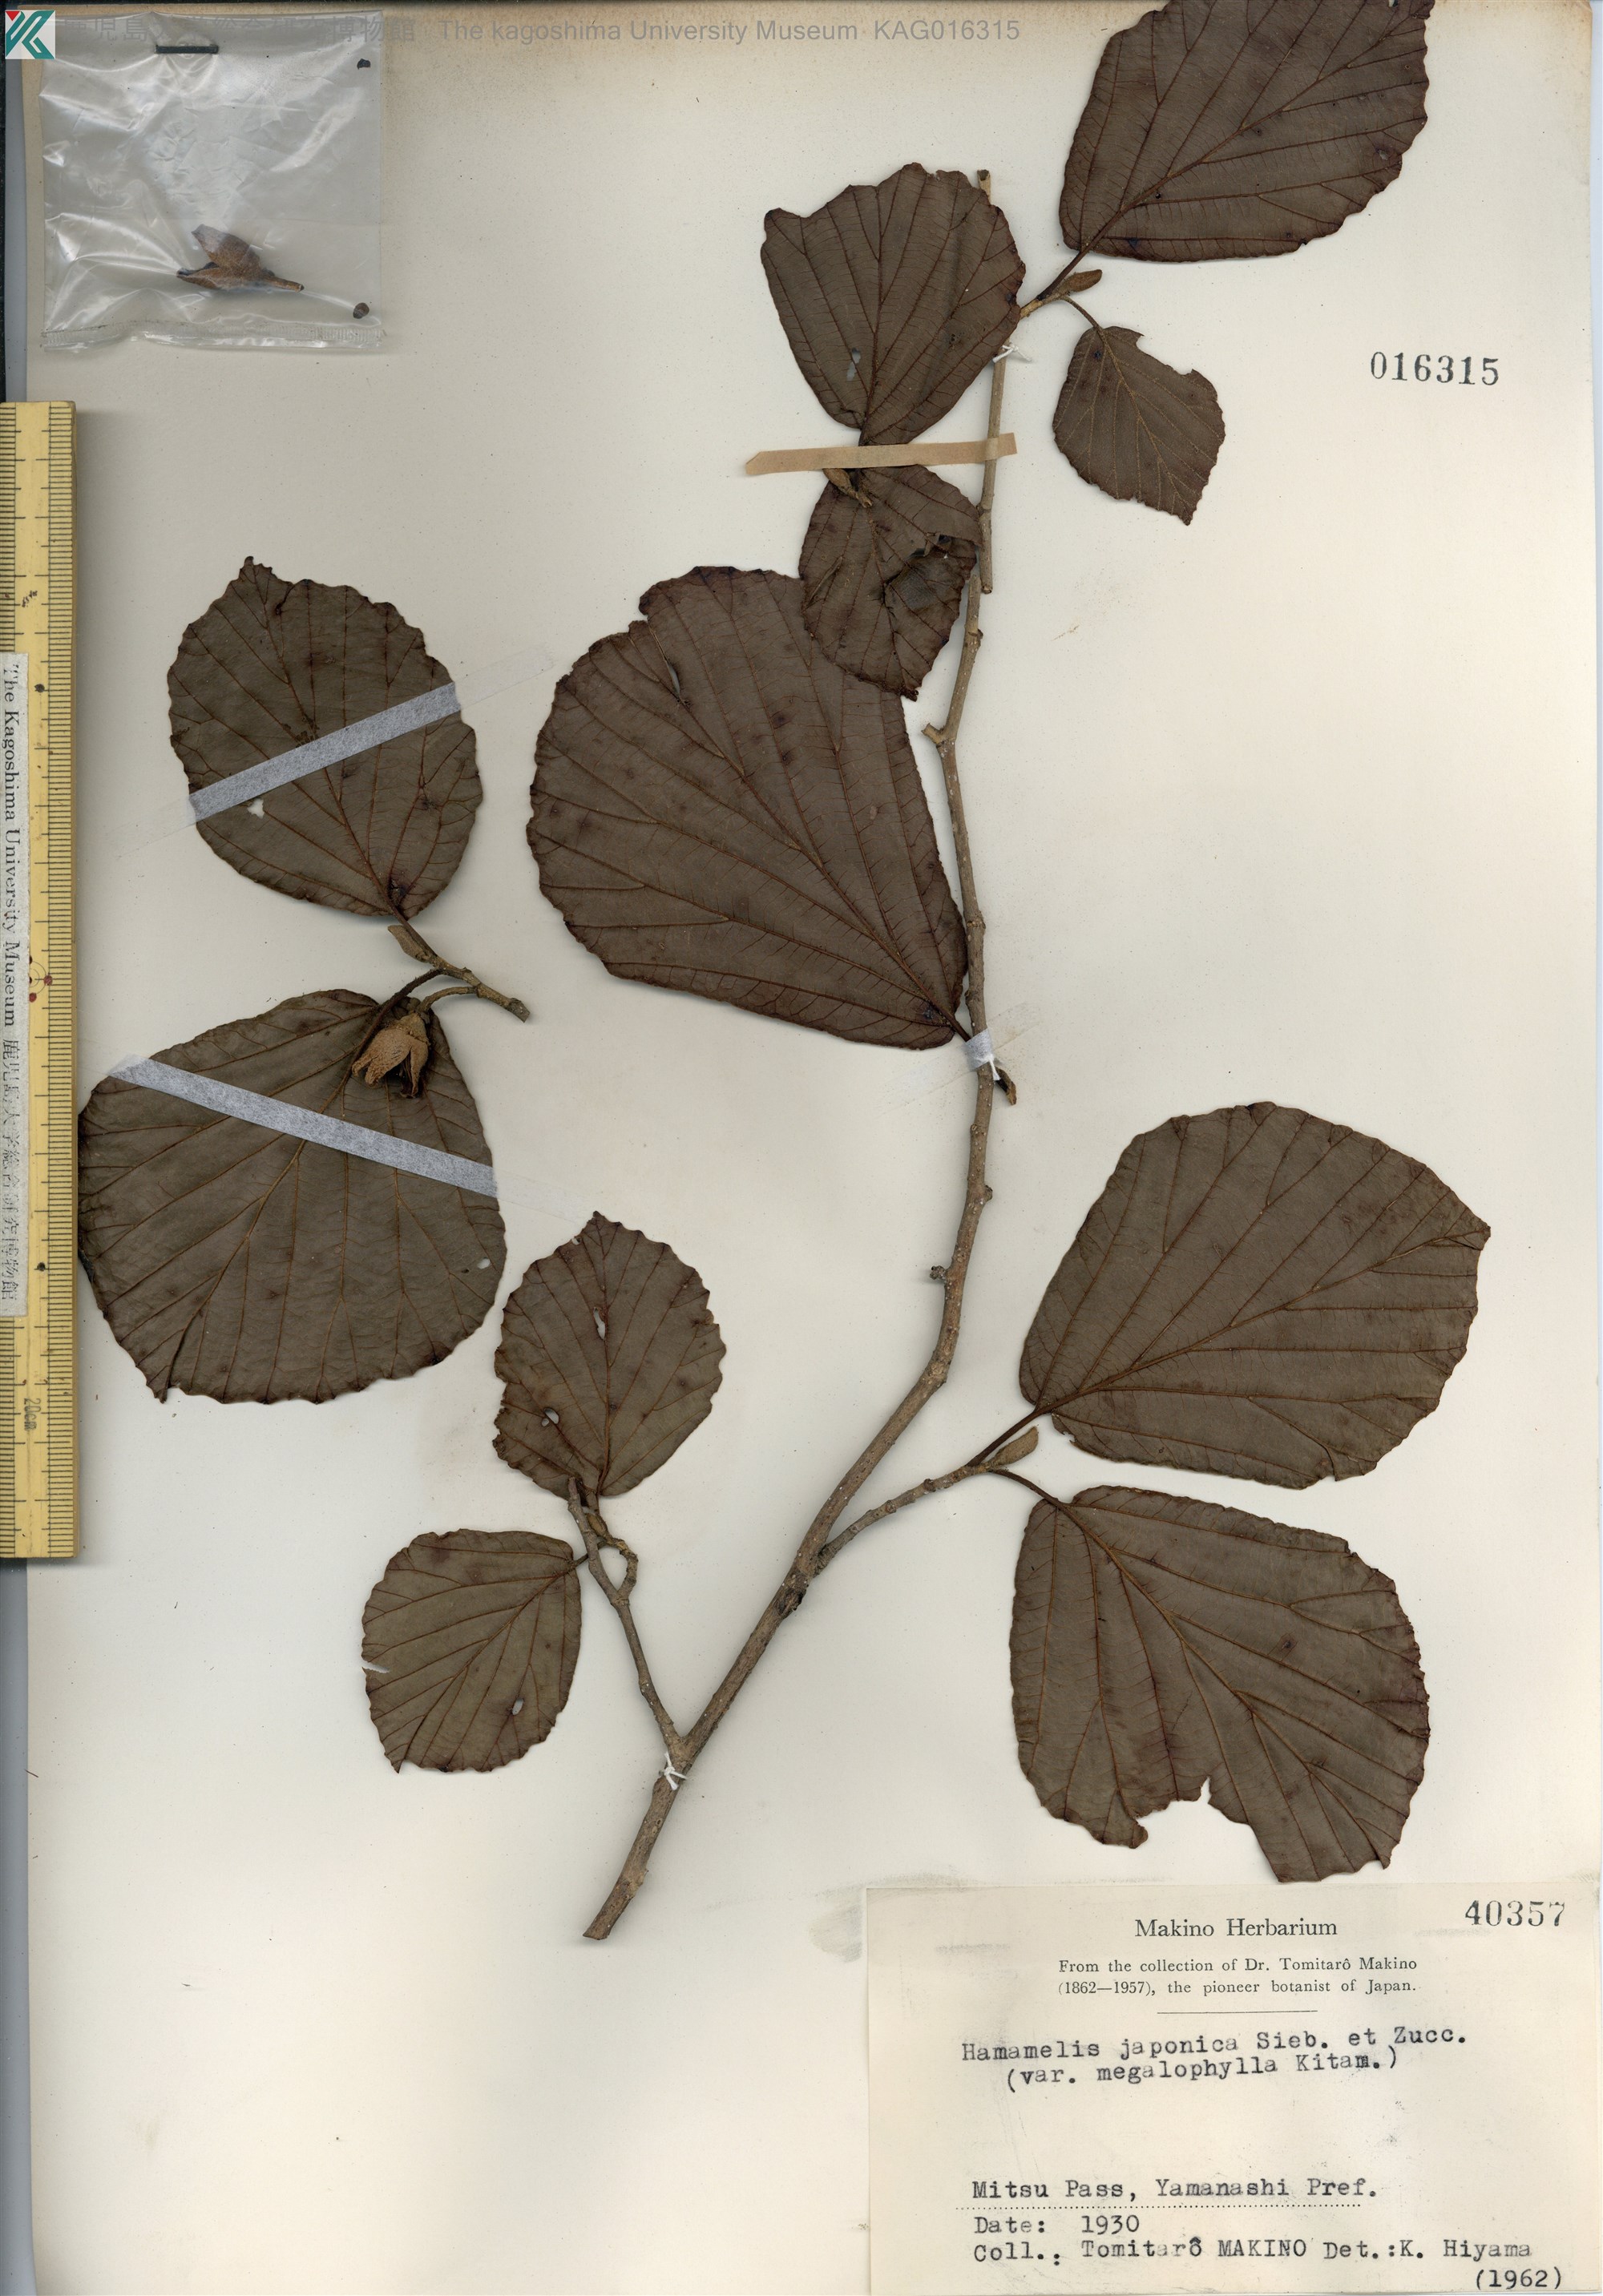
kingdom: Plantae
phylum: Tracheophyta
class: Magnoliopsida
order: Saxifragales
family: Hamamelidaceae
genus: Hamamelis
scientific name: Hamamelis japonica
